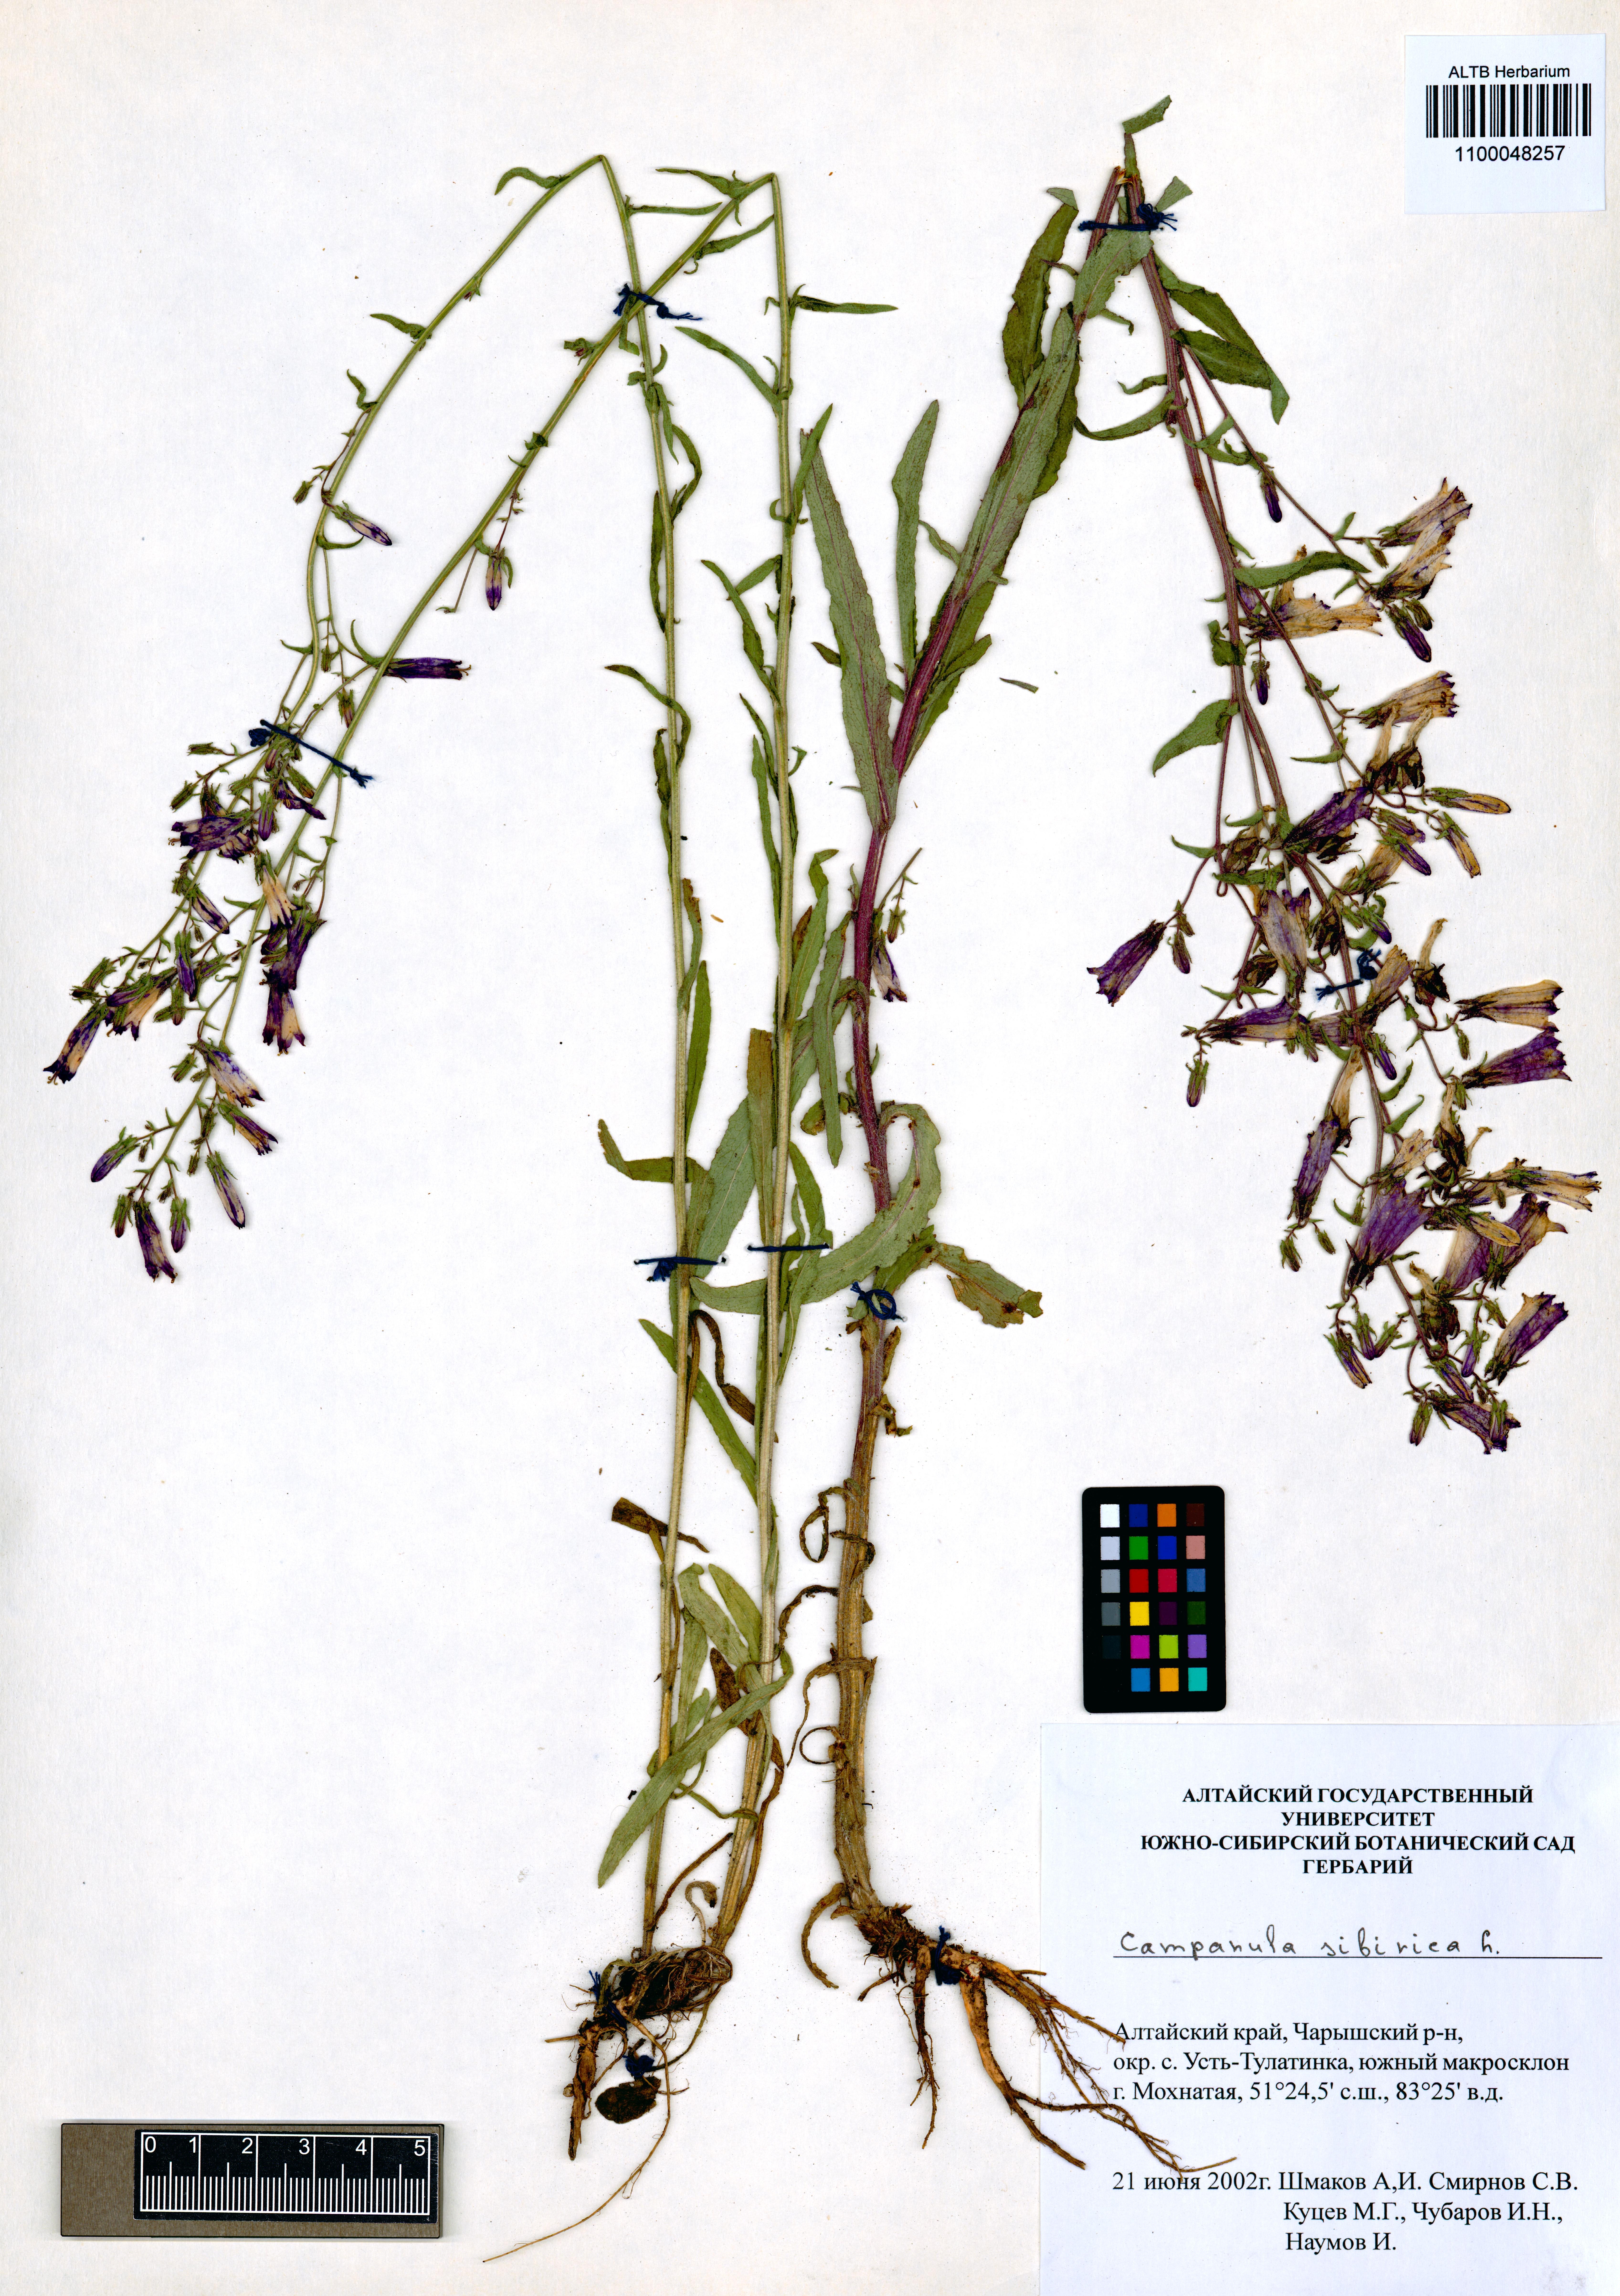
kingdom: Plantae
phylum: Tracheophyta
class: Magnoliopsida
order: Asterales
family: Campanulaceae
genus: Campanula
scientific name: Campanula sibirica
